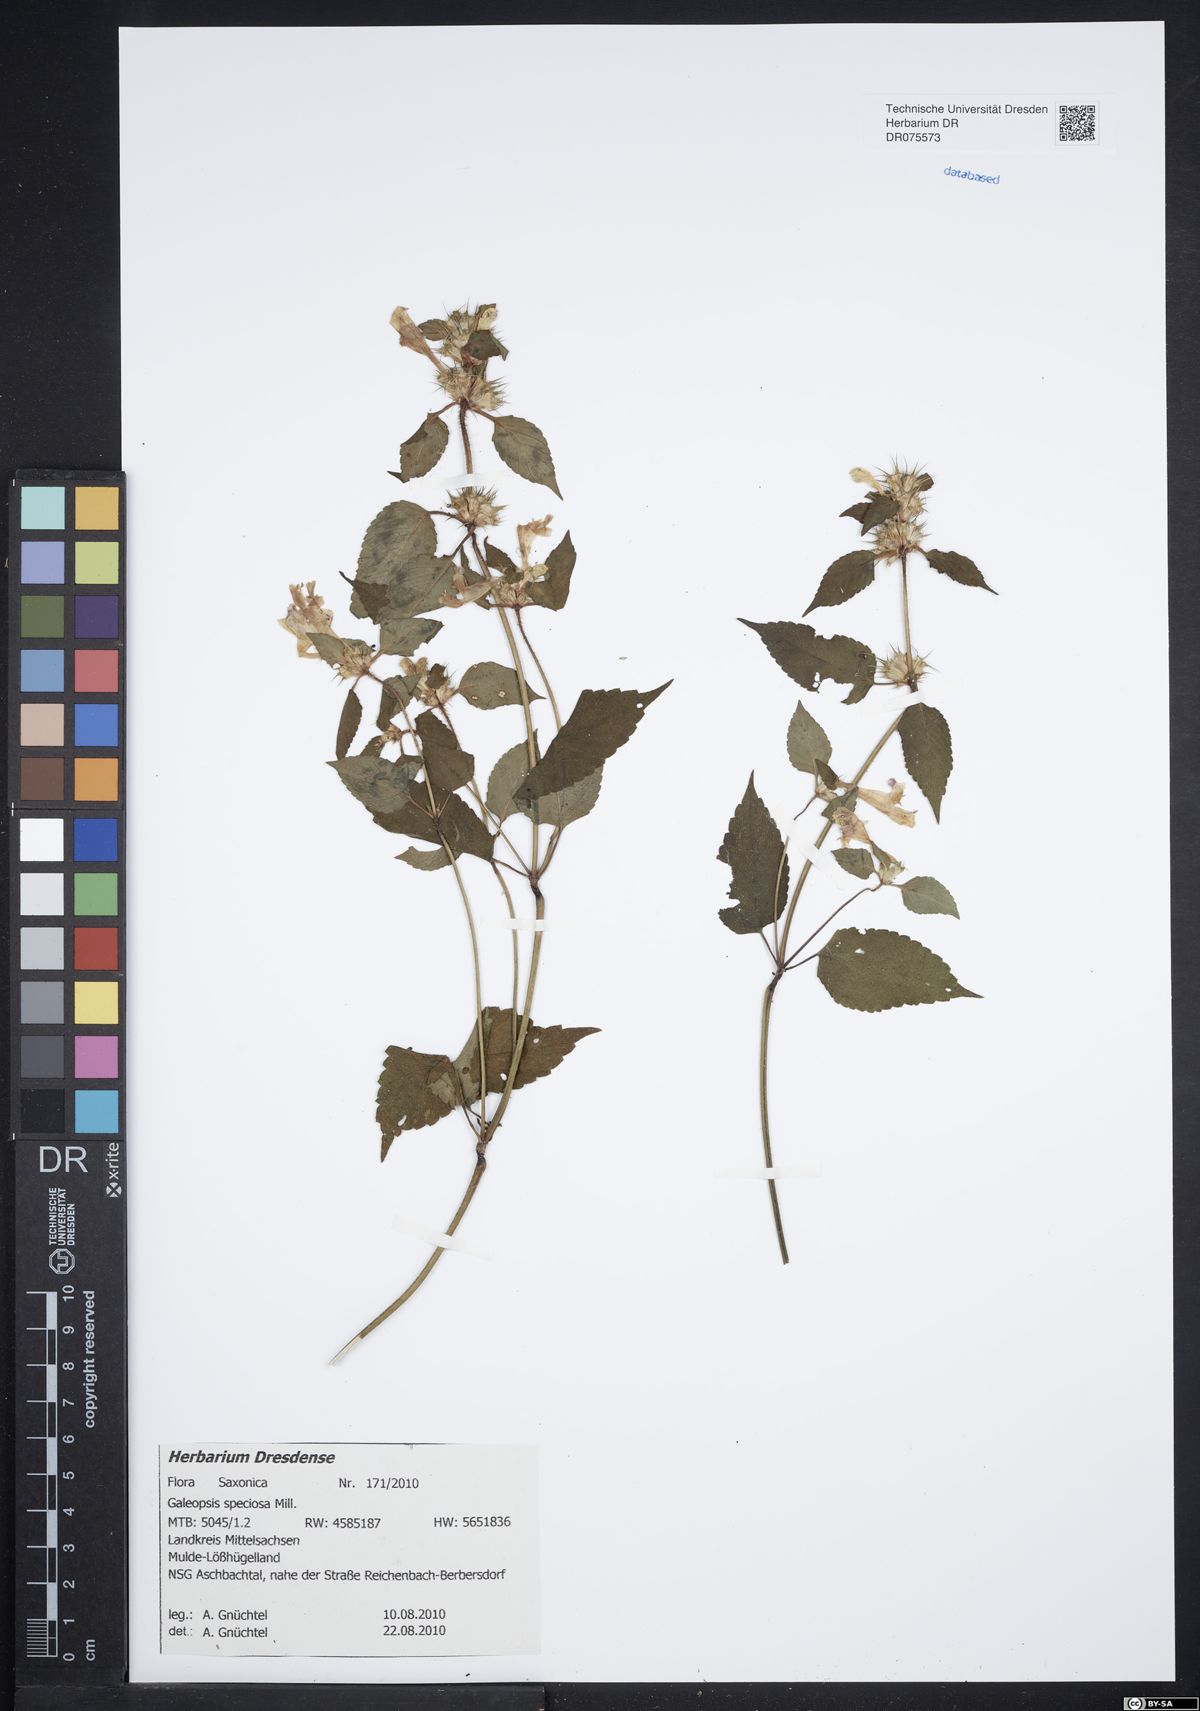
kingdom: Plantae
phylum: Tracheophyta
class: Magnoliopsida
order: Lamiales
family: Lamiaceae
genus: Galeopsis
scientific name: Galeopsis speciosa
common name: Large-flowered hemp-nettle
